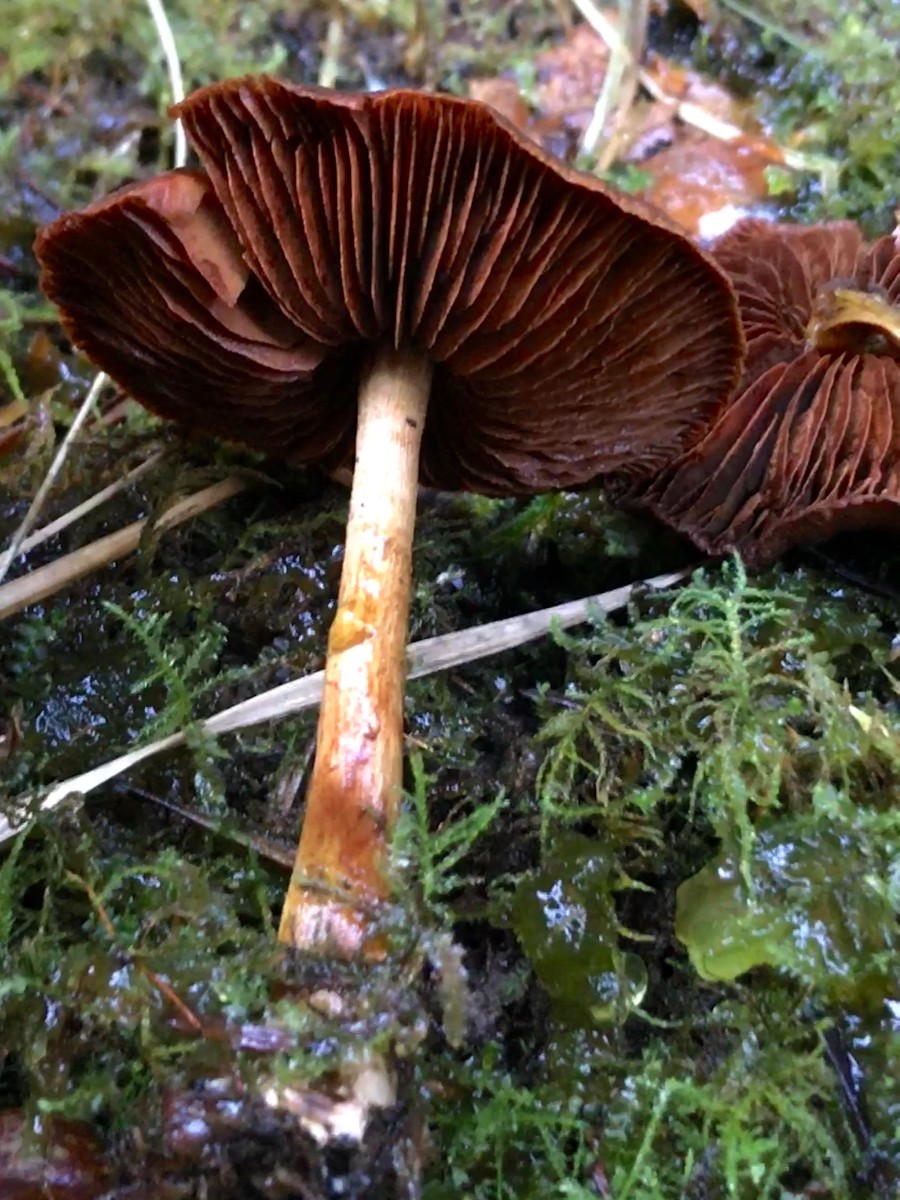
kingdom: Fungi
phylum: Basidiomycota
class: Agaricomycetes
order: Agaricales
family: Cortinariaceae
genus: Cortinarius
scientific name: Cortinarius
